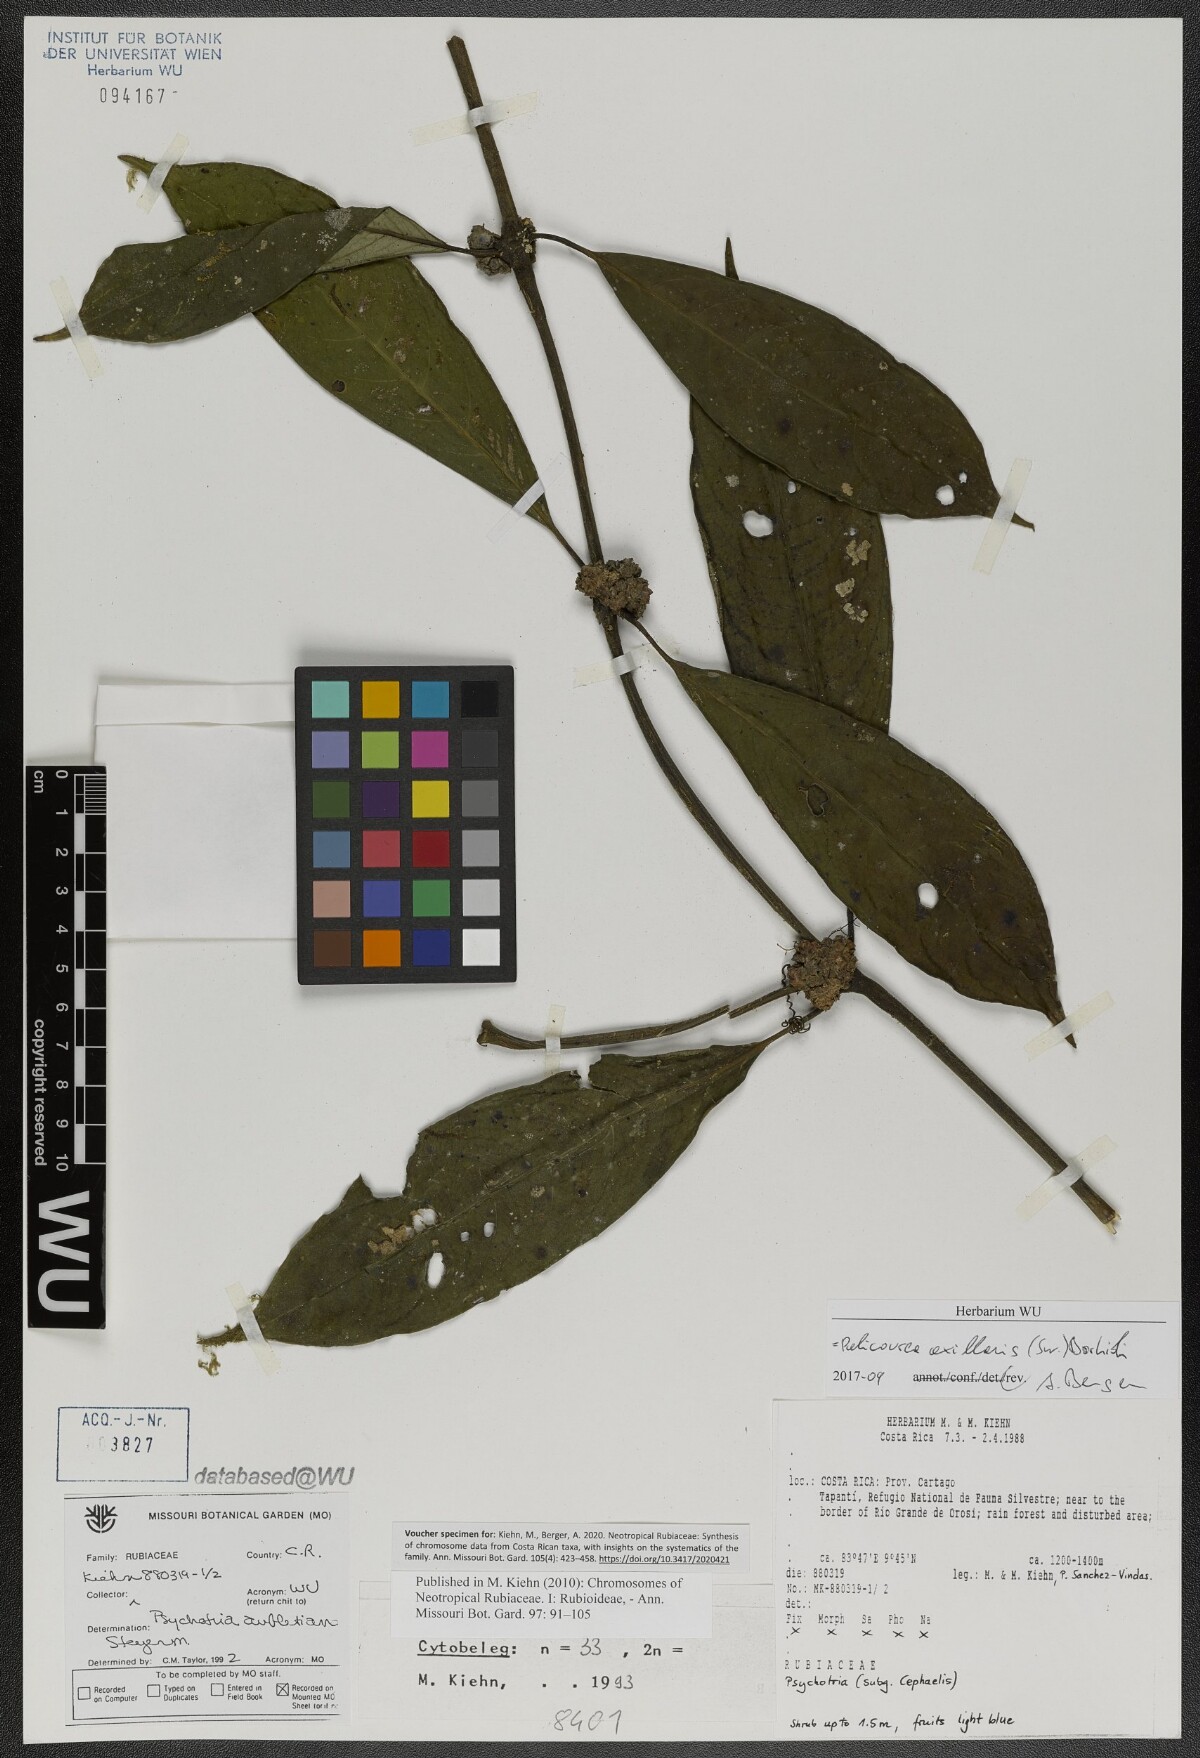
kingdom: Plantae
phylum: Tracheophyta
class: Magnoliopsida
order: Gentianales
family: Rubiaceae
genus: Palicourea
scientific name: Palicourea axillaris
